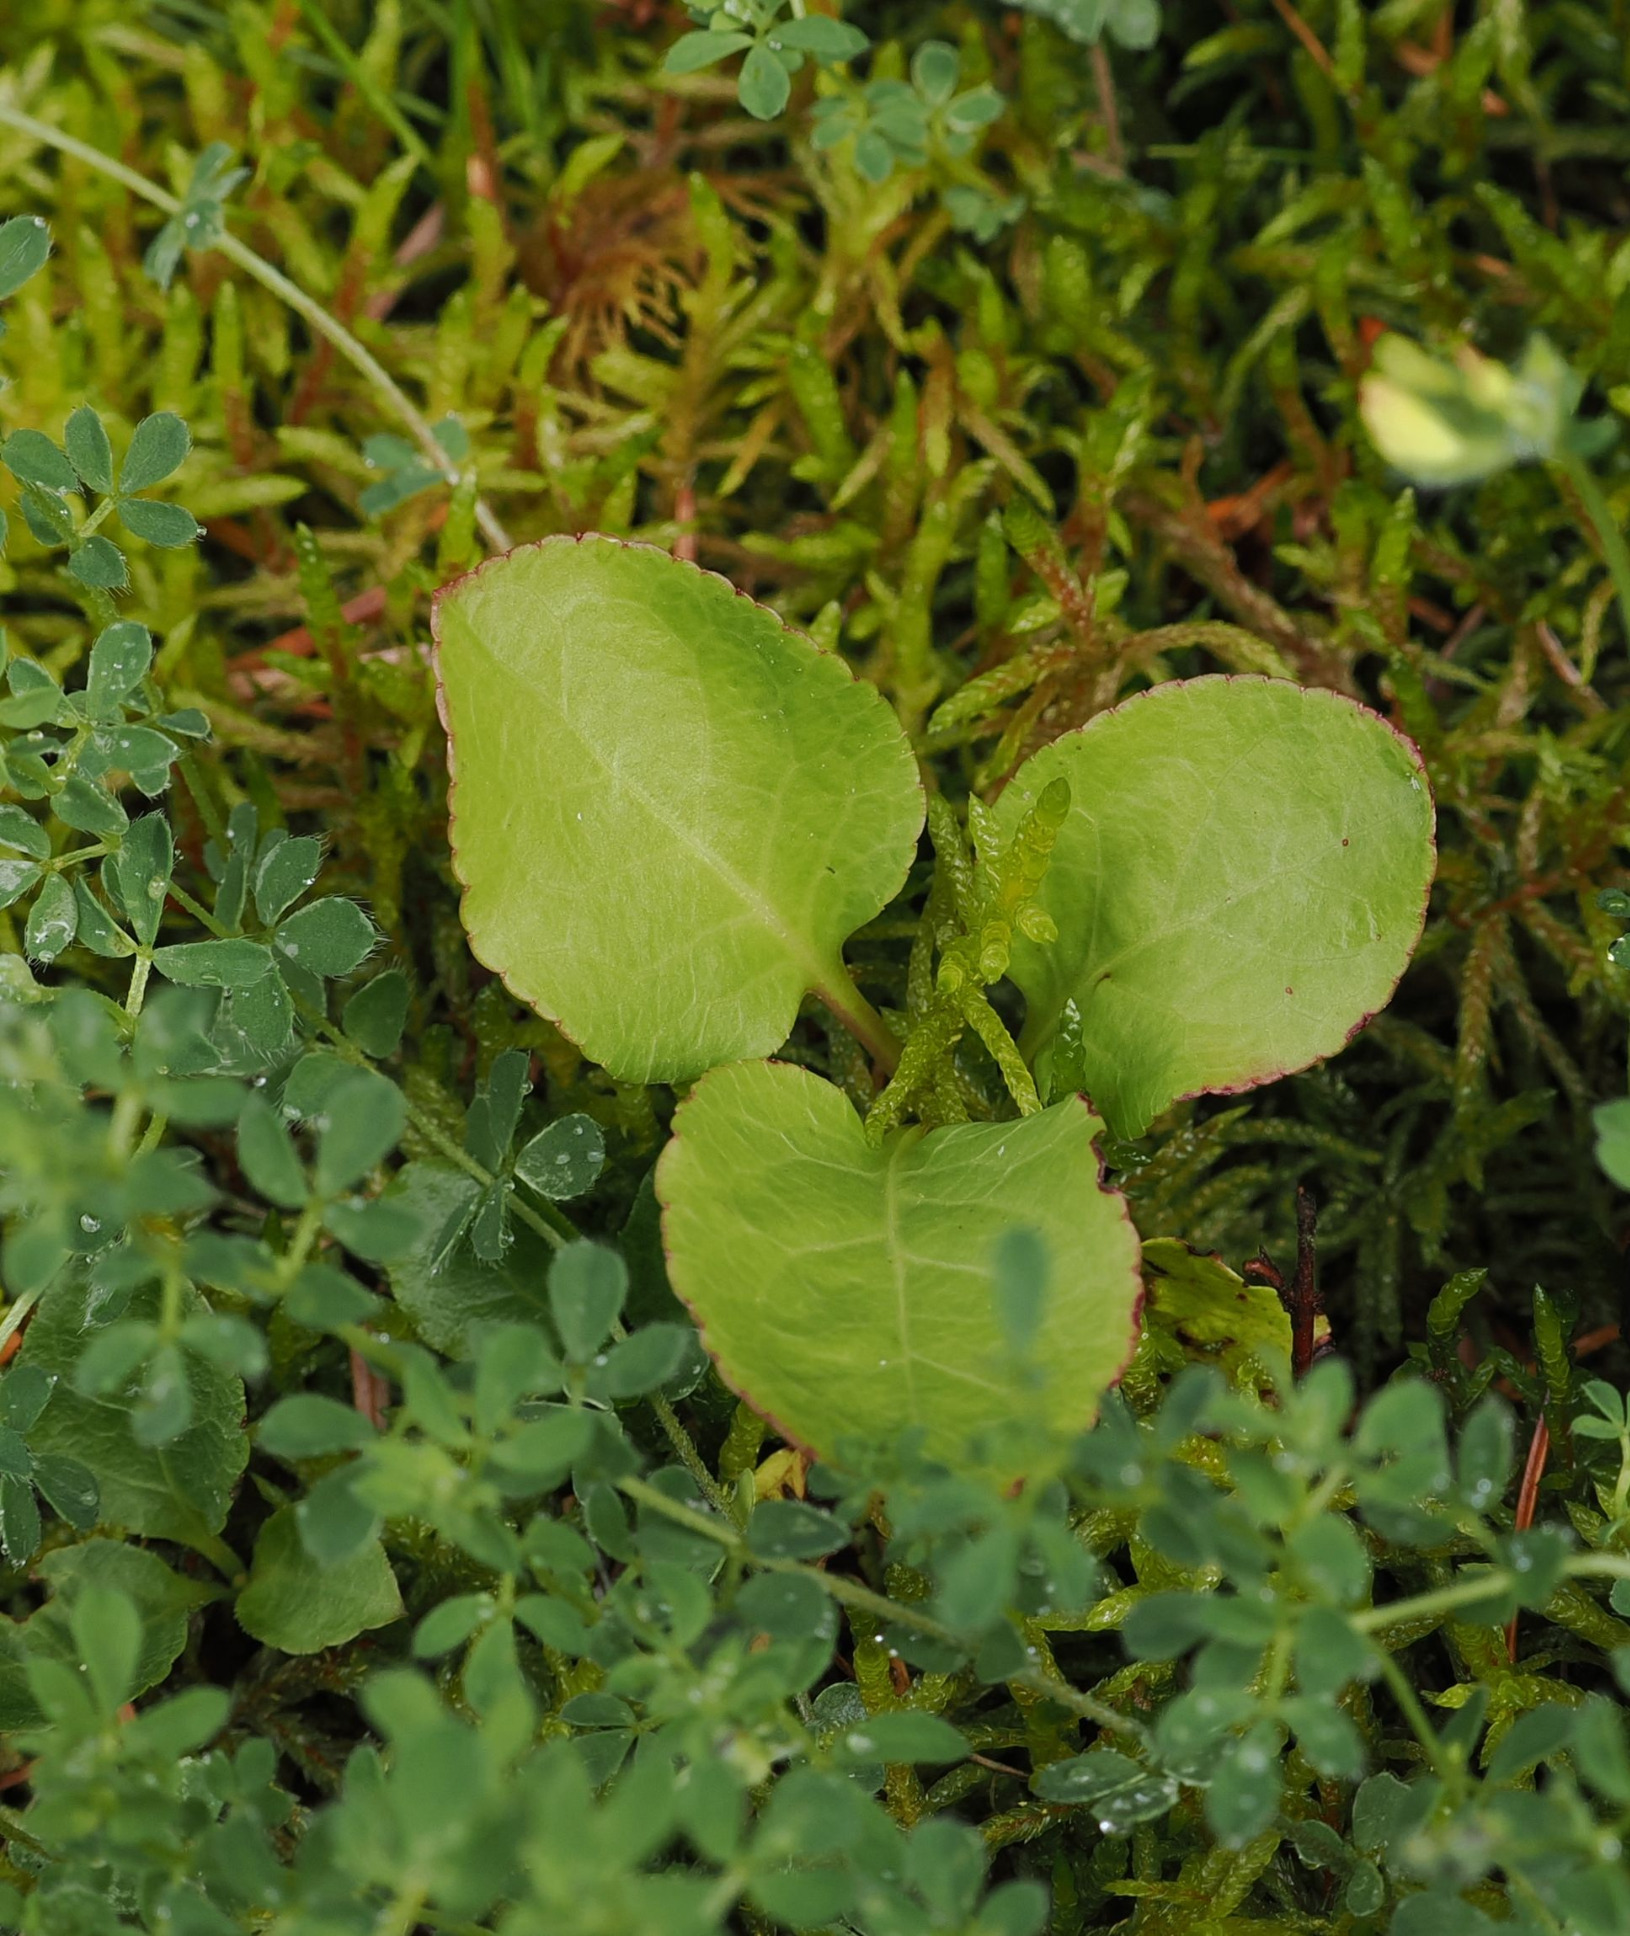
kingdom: Plantae
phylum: Tracheophyta
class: Magnoliopsida
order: Ericales
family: Ericaceae
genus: Pyrola
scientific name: Pyrola minor
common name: Liden vintergrøn
